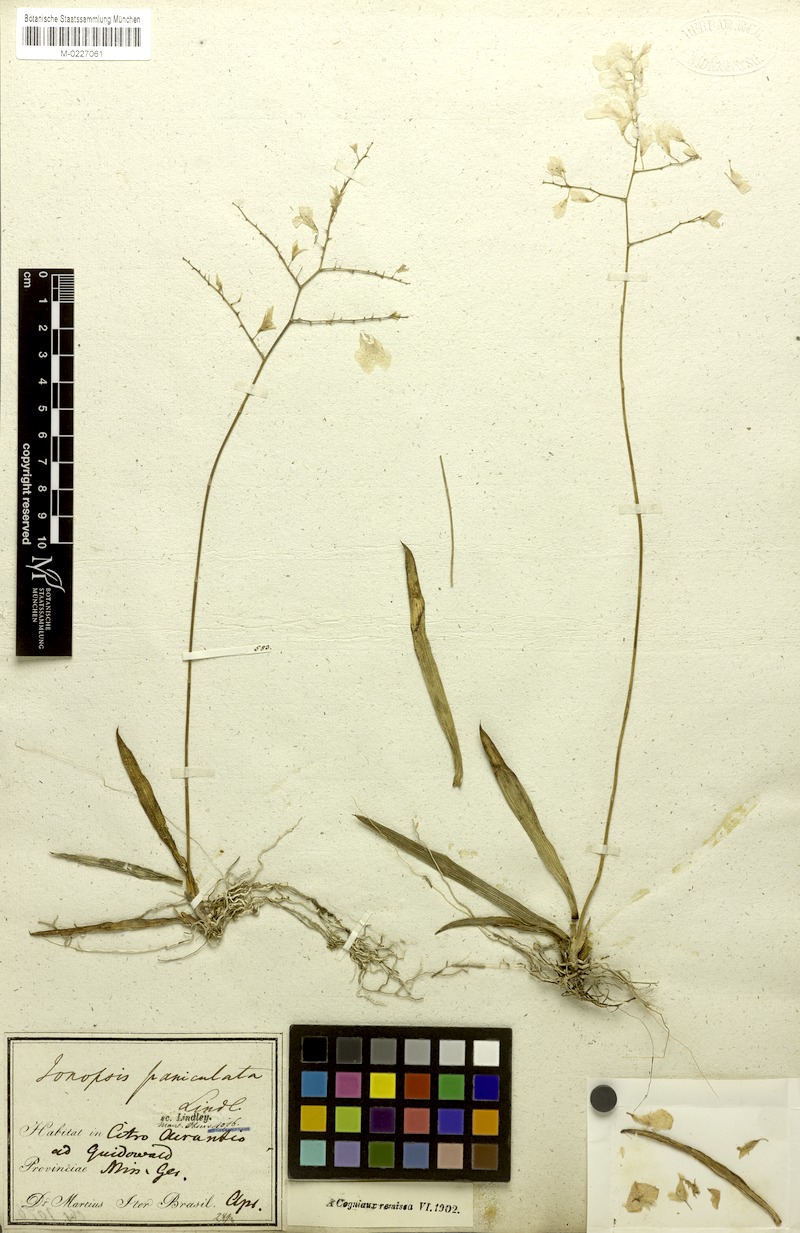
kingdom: Plantae
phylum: Tracheophyta
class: Liliopsida
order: Asparagales
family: Orchidaceae
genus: Ionopsis
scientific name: Ionopsis utricularioides
